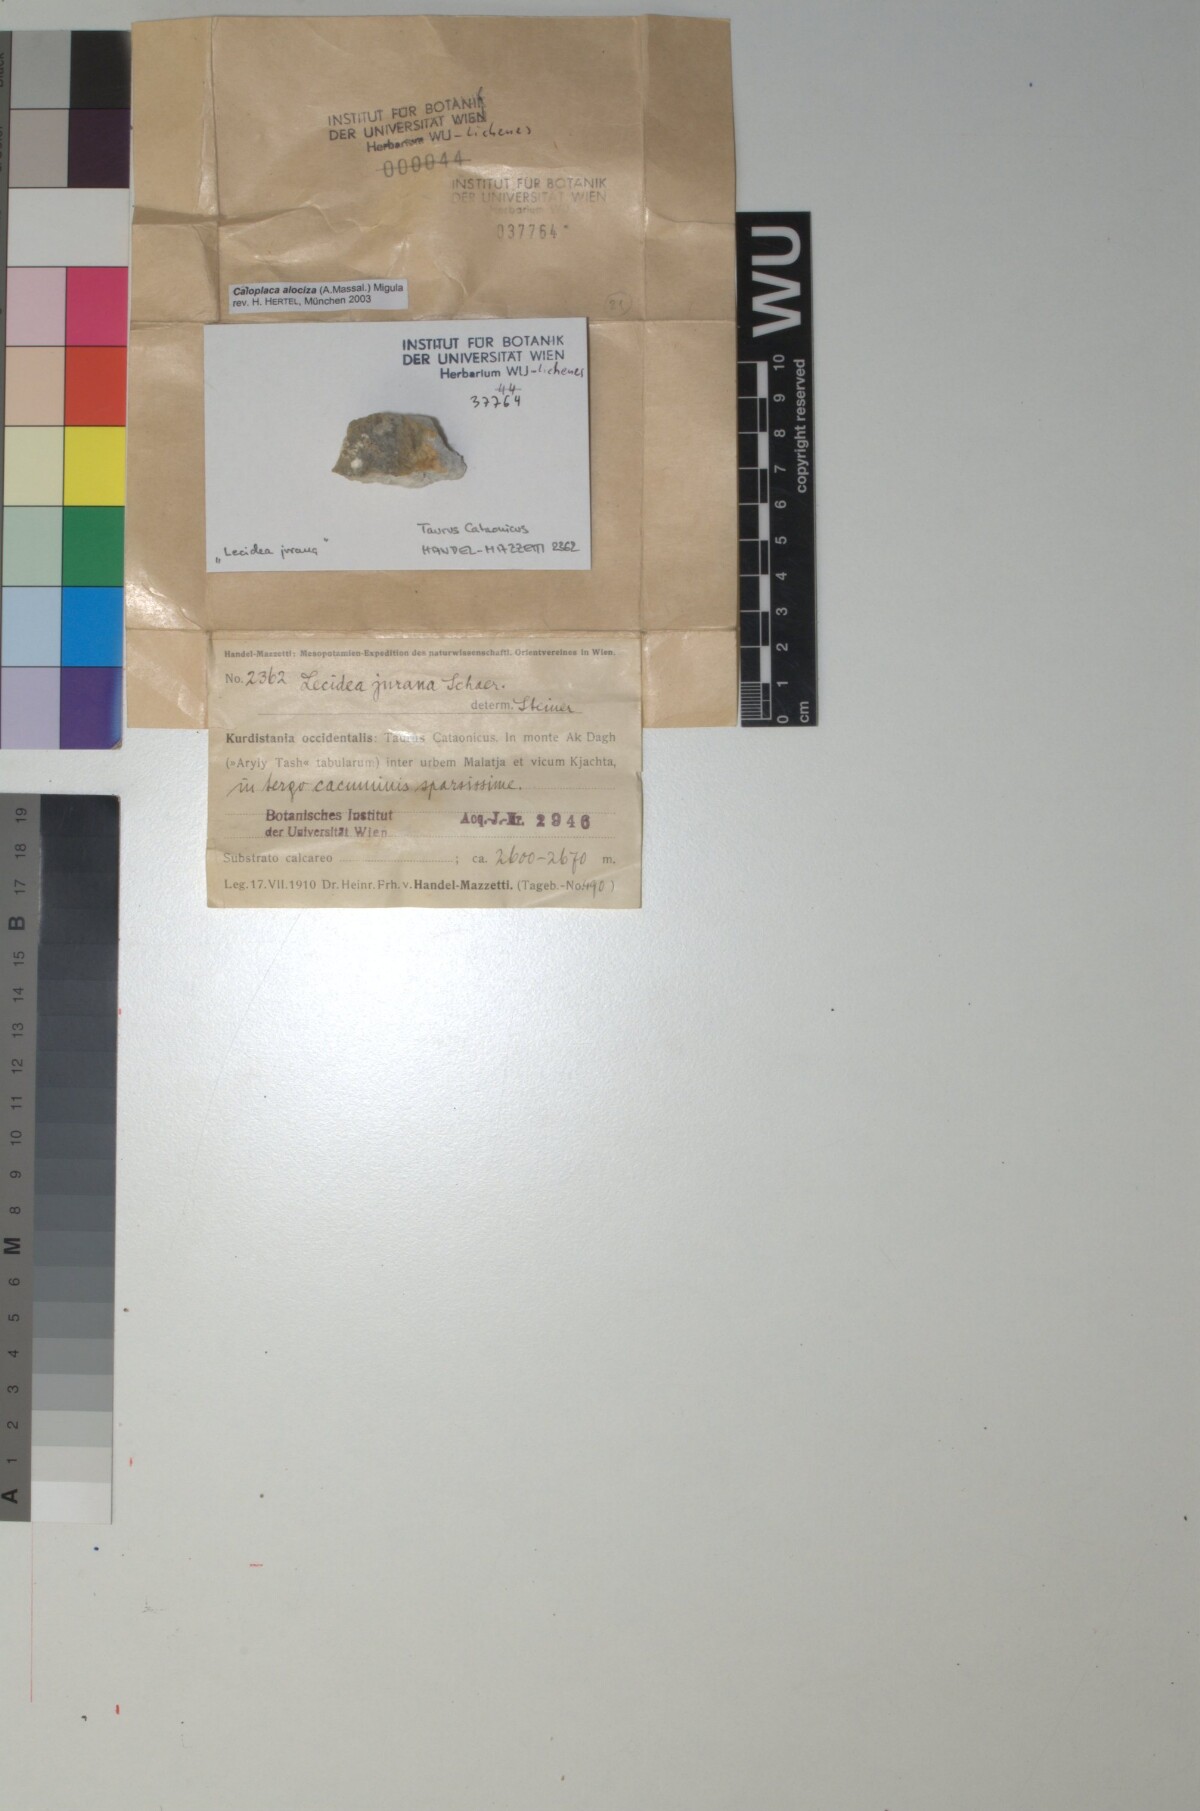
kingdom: Fungi
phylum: Ascomycota
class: Lecanoromycetes
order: Teloschistales
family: Teloschistaceae
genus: Pyrenodesmia
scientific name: Pyrenodesmia alociza
